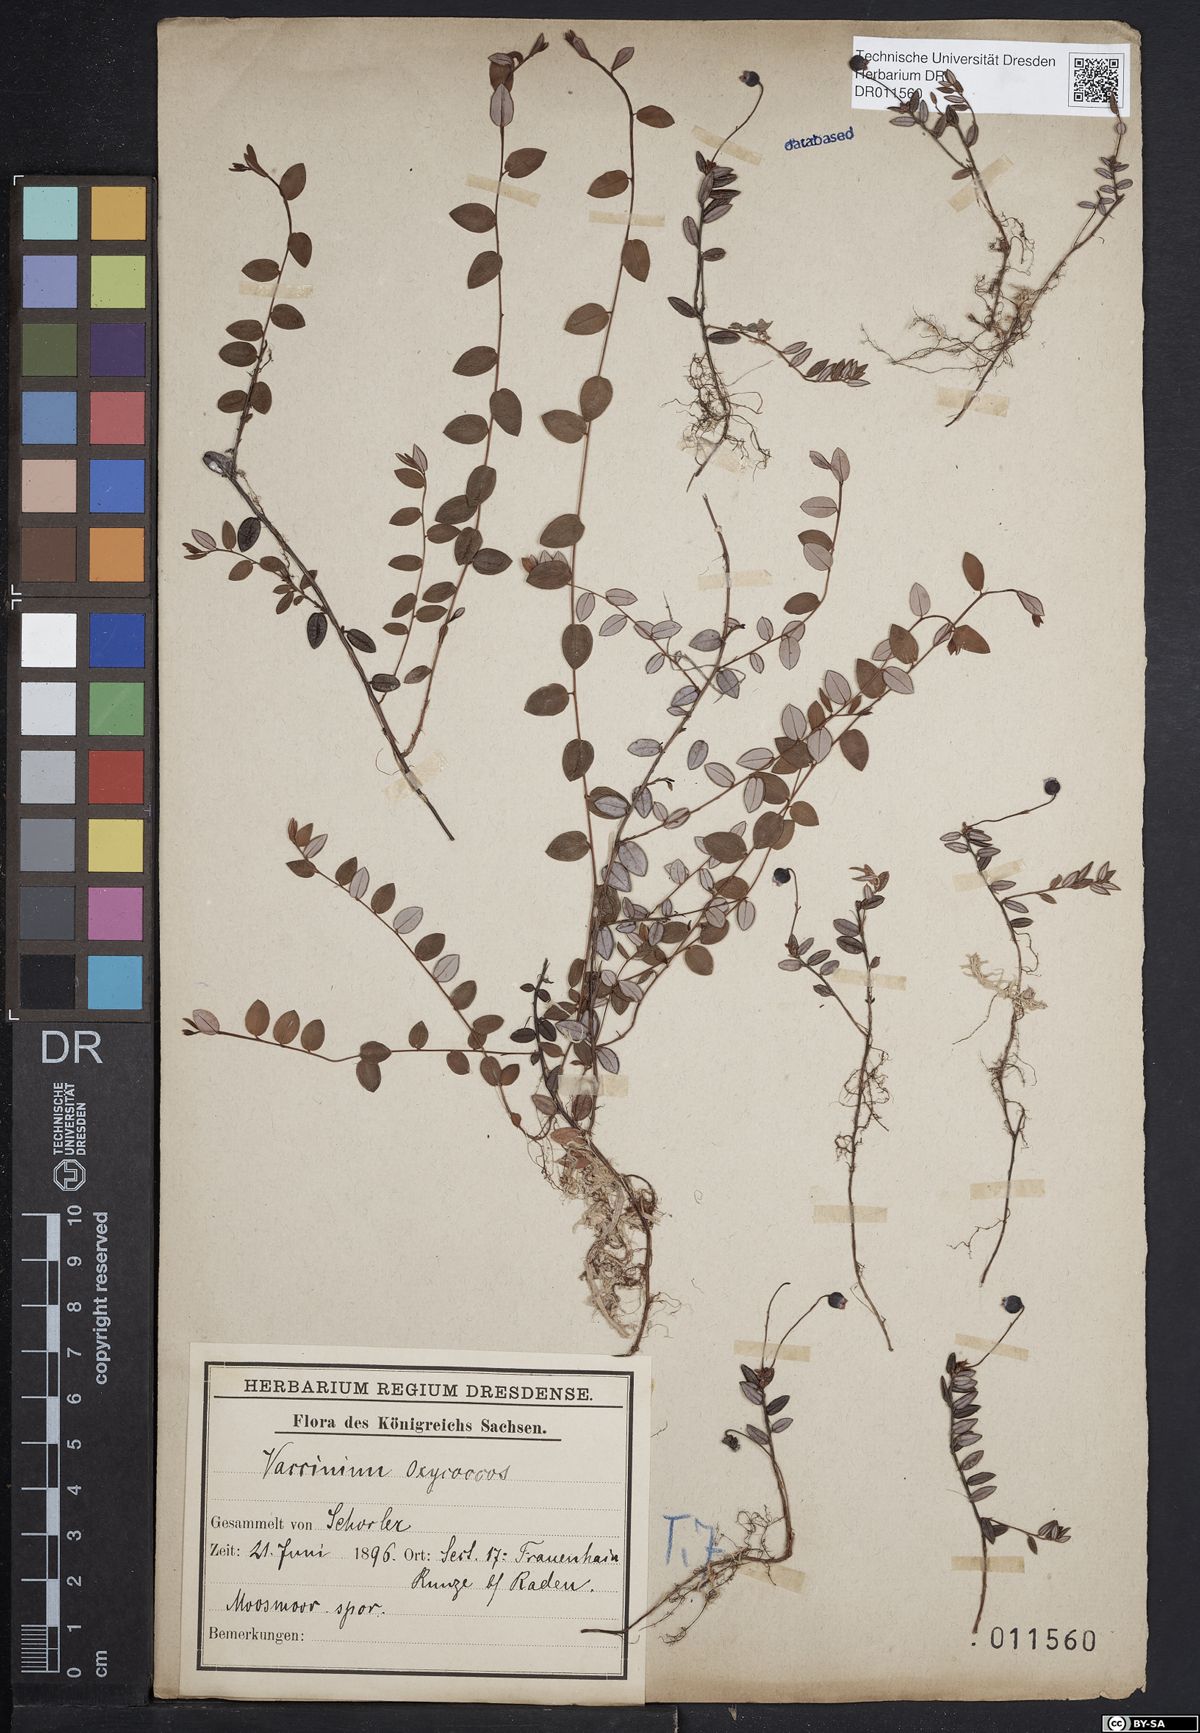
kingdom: Plantae
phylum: Tracheophyta
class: Magnoliopsida
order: Ericales
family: Ericaceae
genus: Vaccinium
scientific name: Vaccinium oxycoccos
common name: Cranberry
